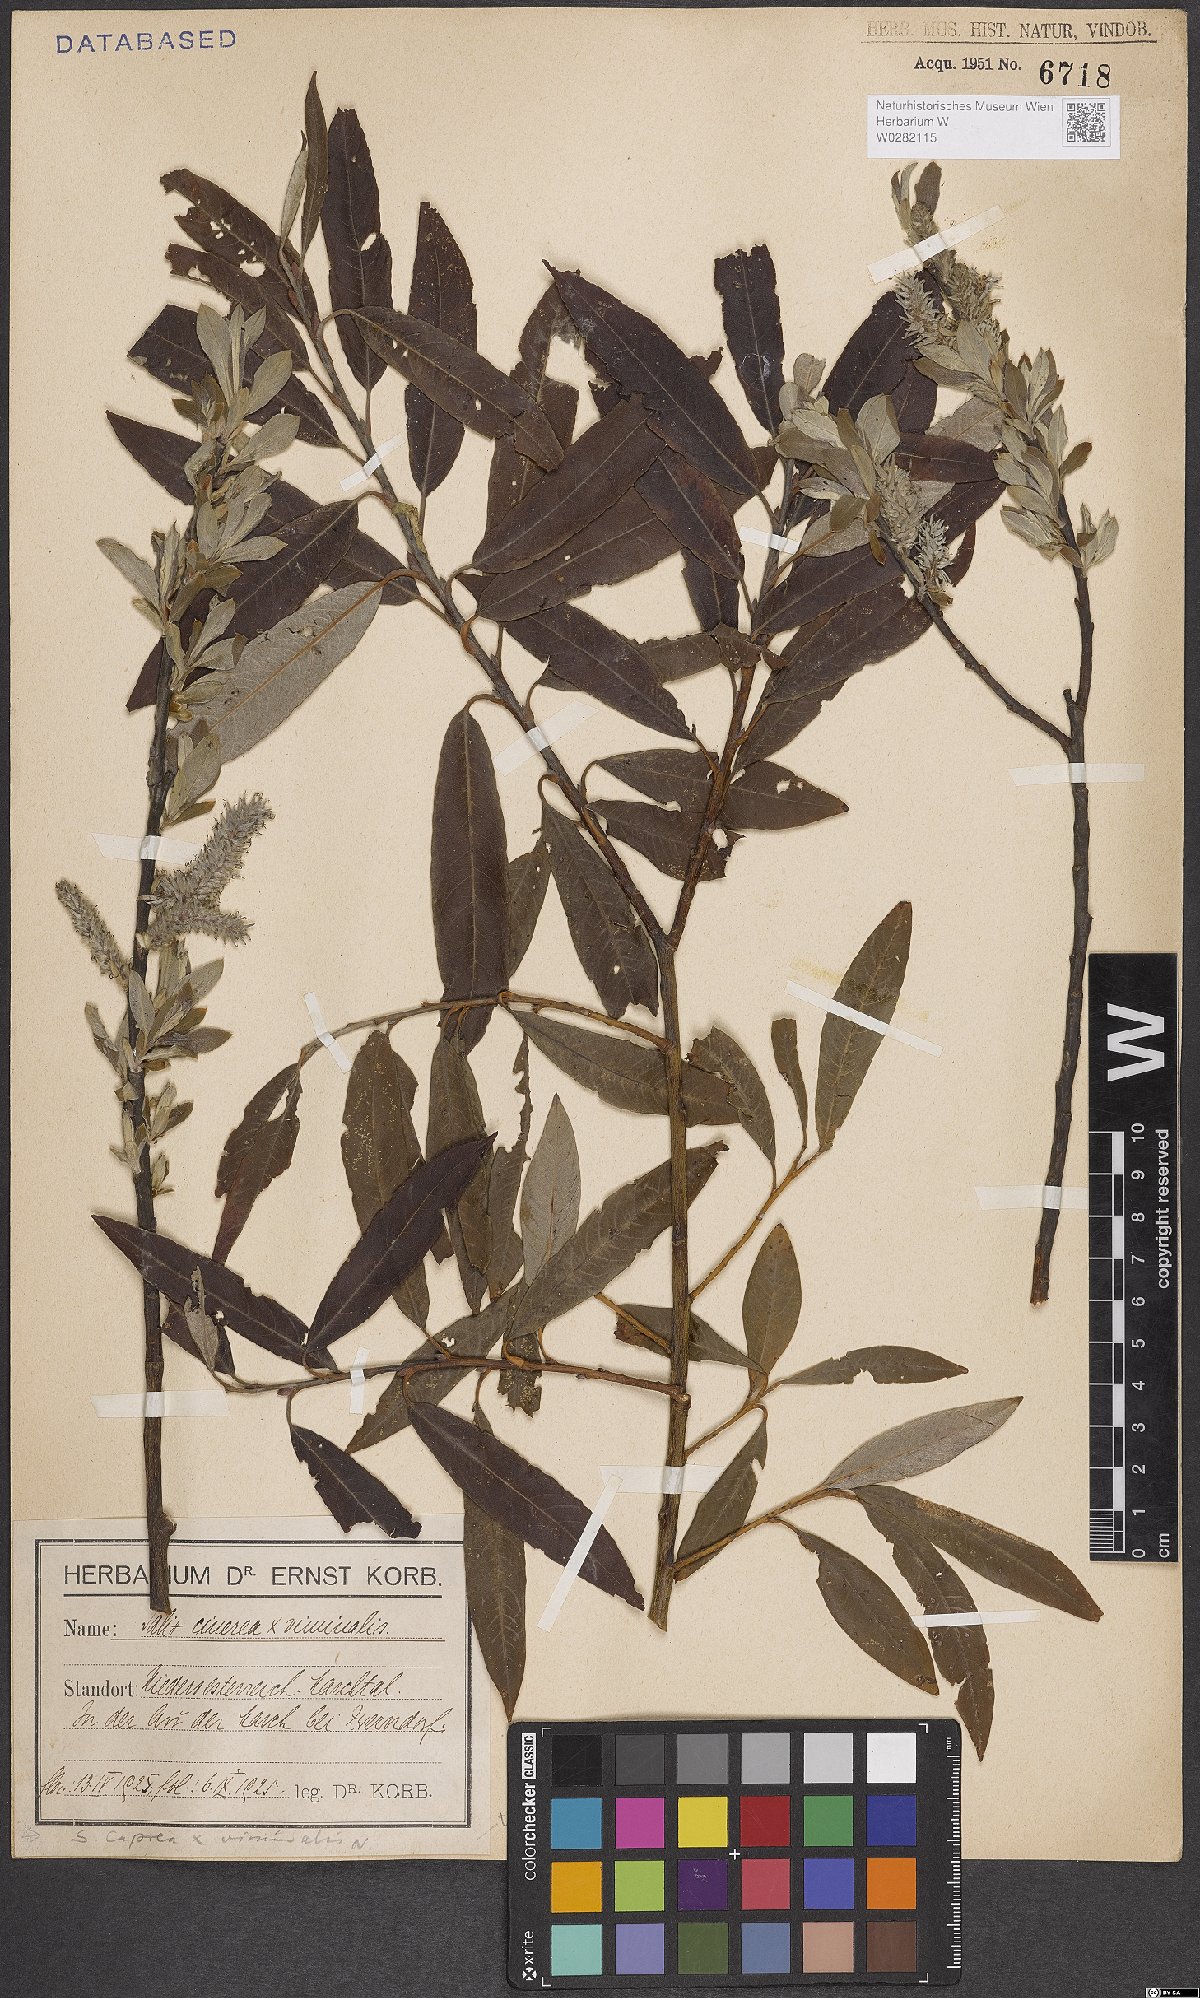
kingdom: Plantae
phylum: Tracheophyta
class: Magnoliopsida
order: Malpighiales
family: Salicaceae
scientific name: Salicaceae
